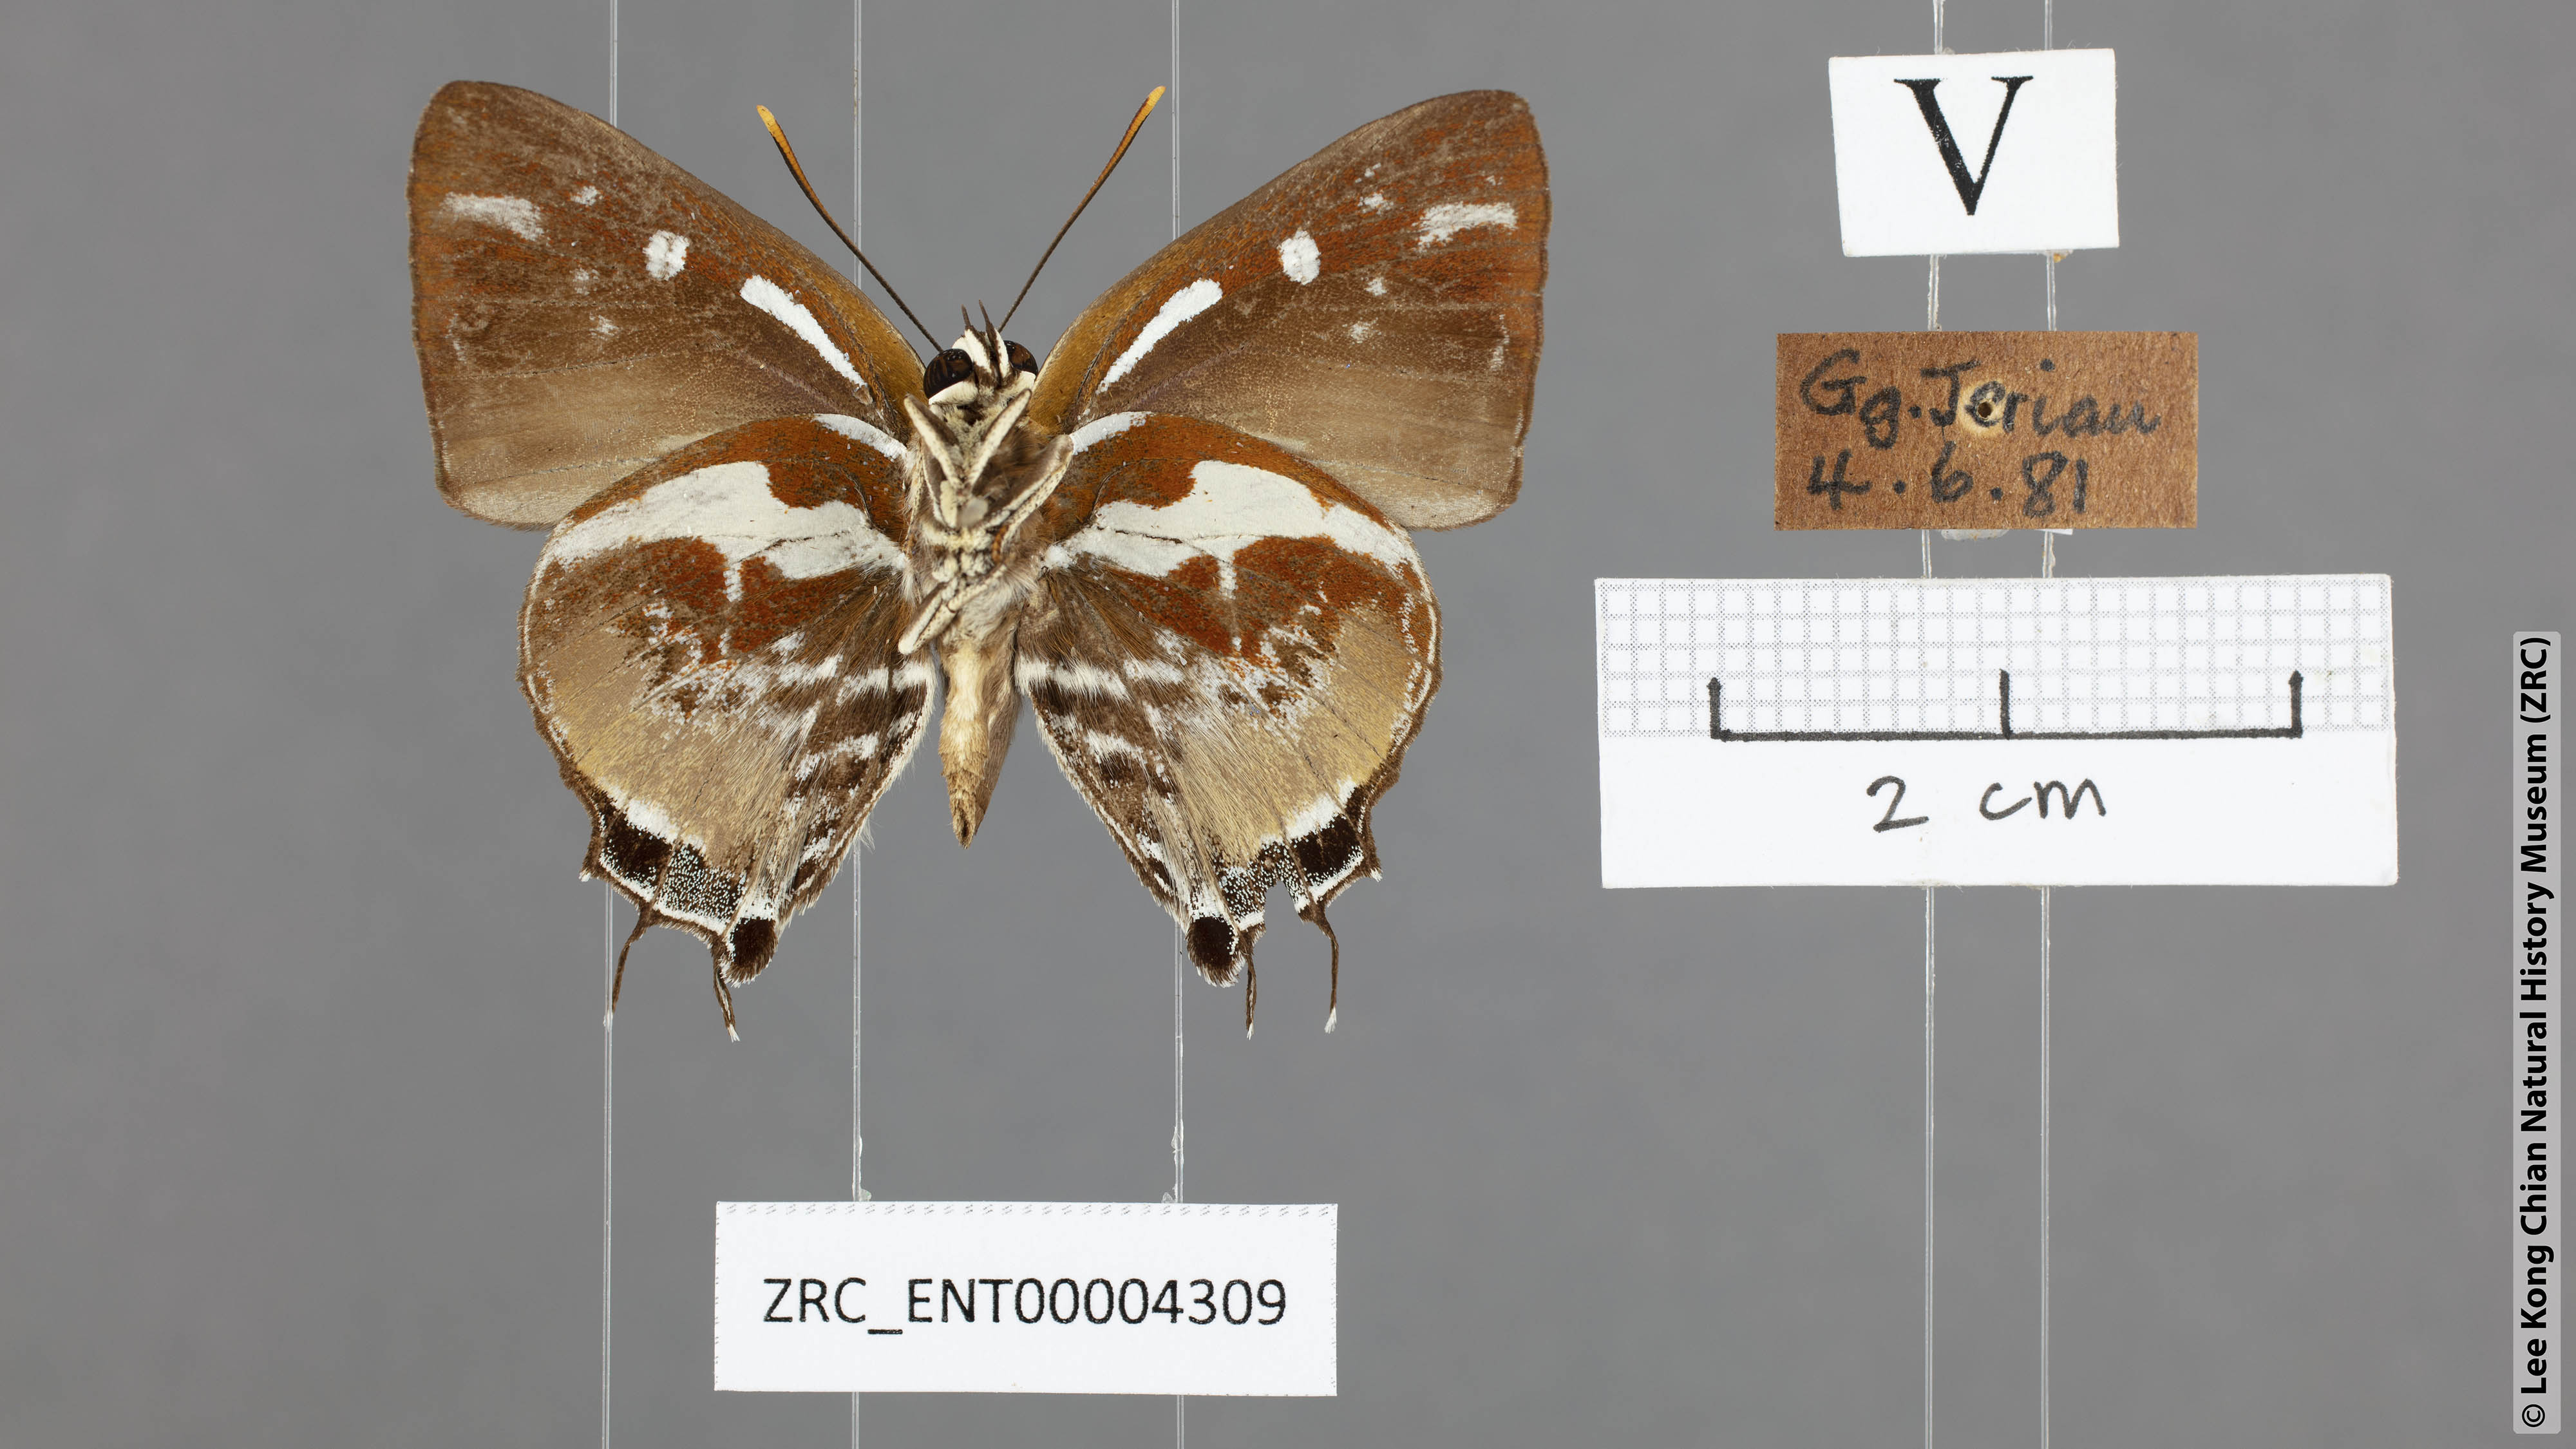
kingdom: Animalia
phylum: Arthropoda
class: Insecta
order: Lepidoptera
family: Lycaenidae
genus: Iraota
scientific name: Iraota rochana
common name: Scarce silverstreak blue
